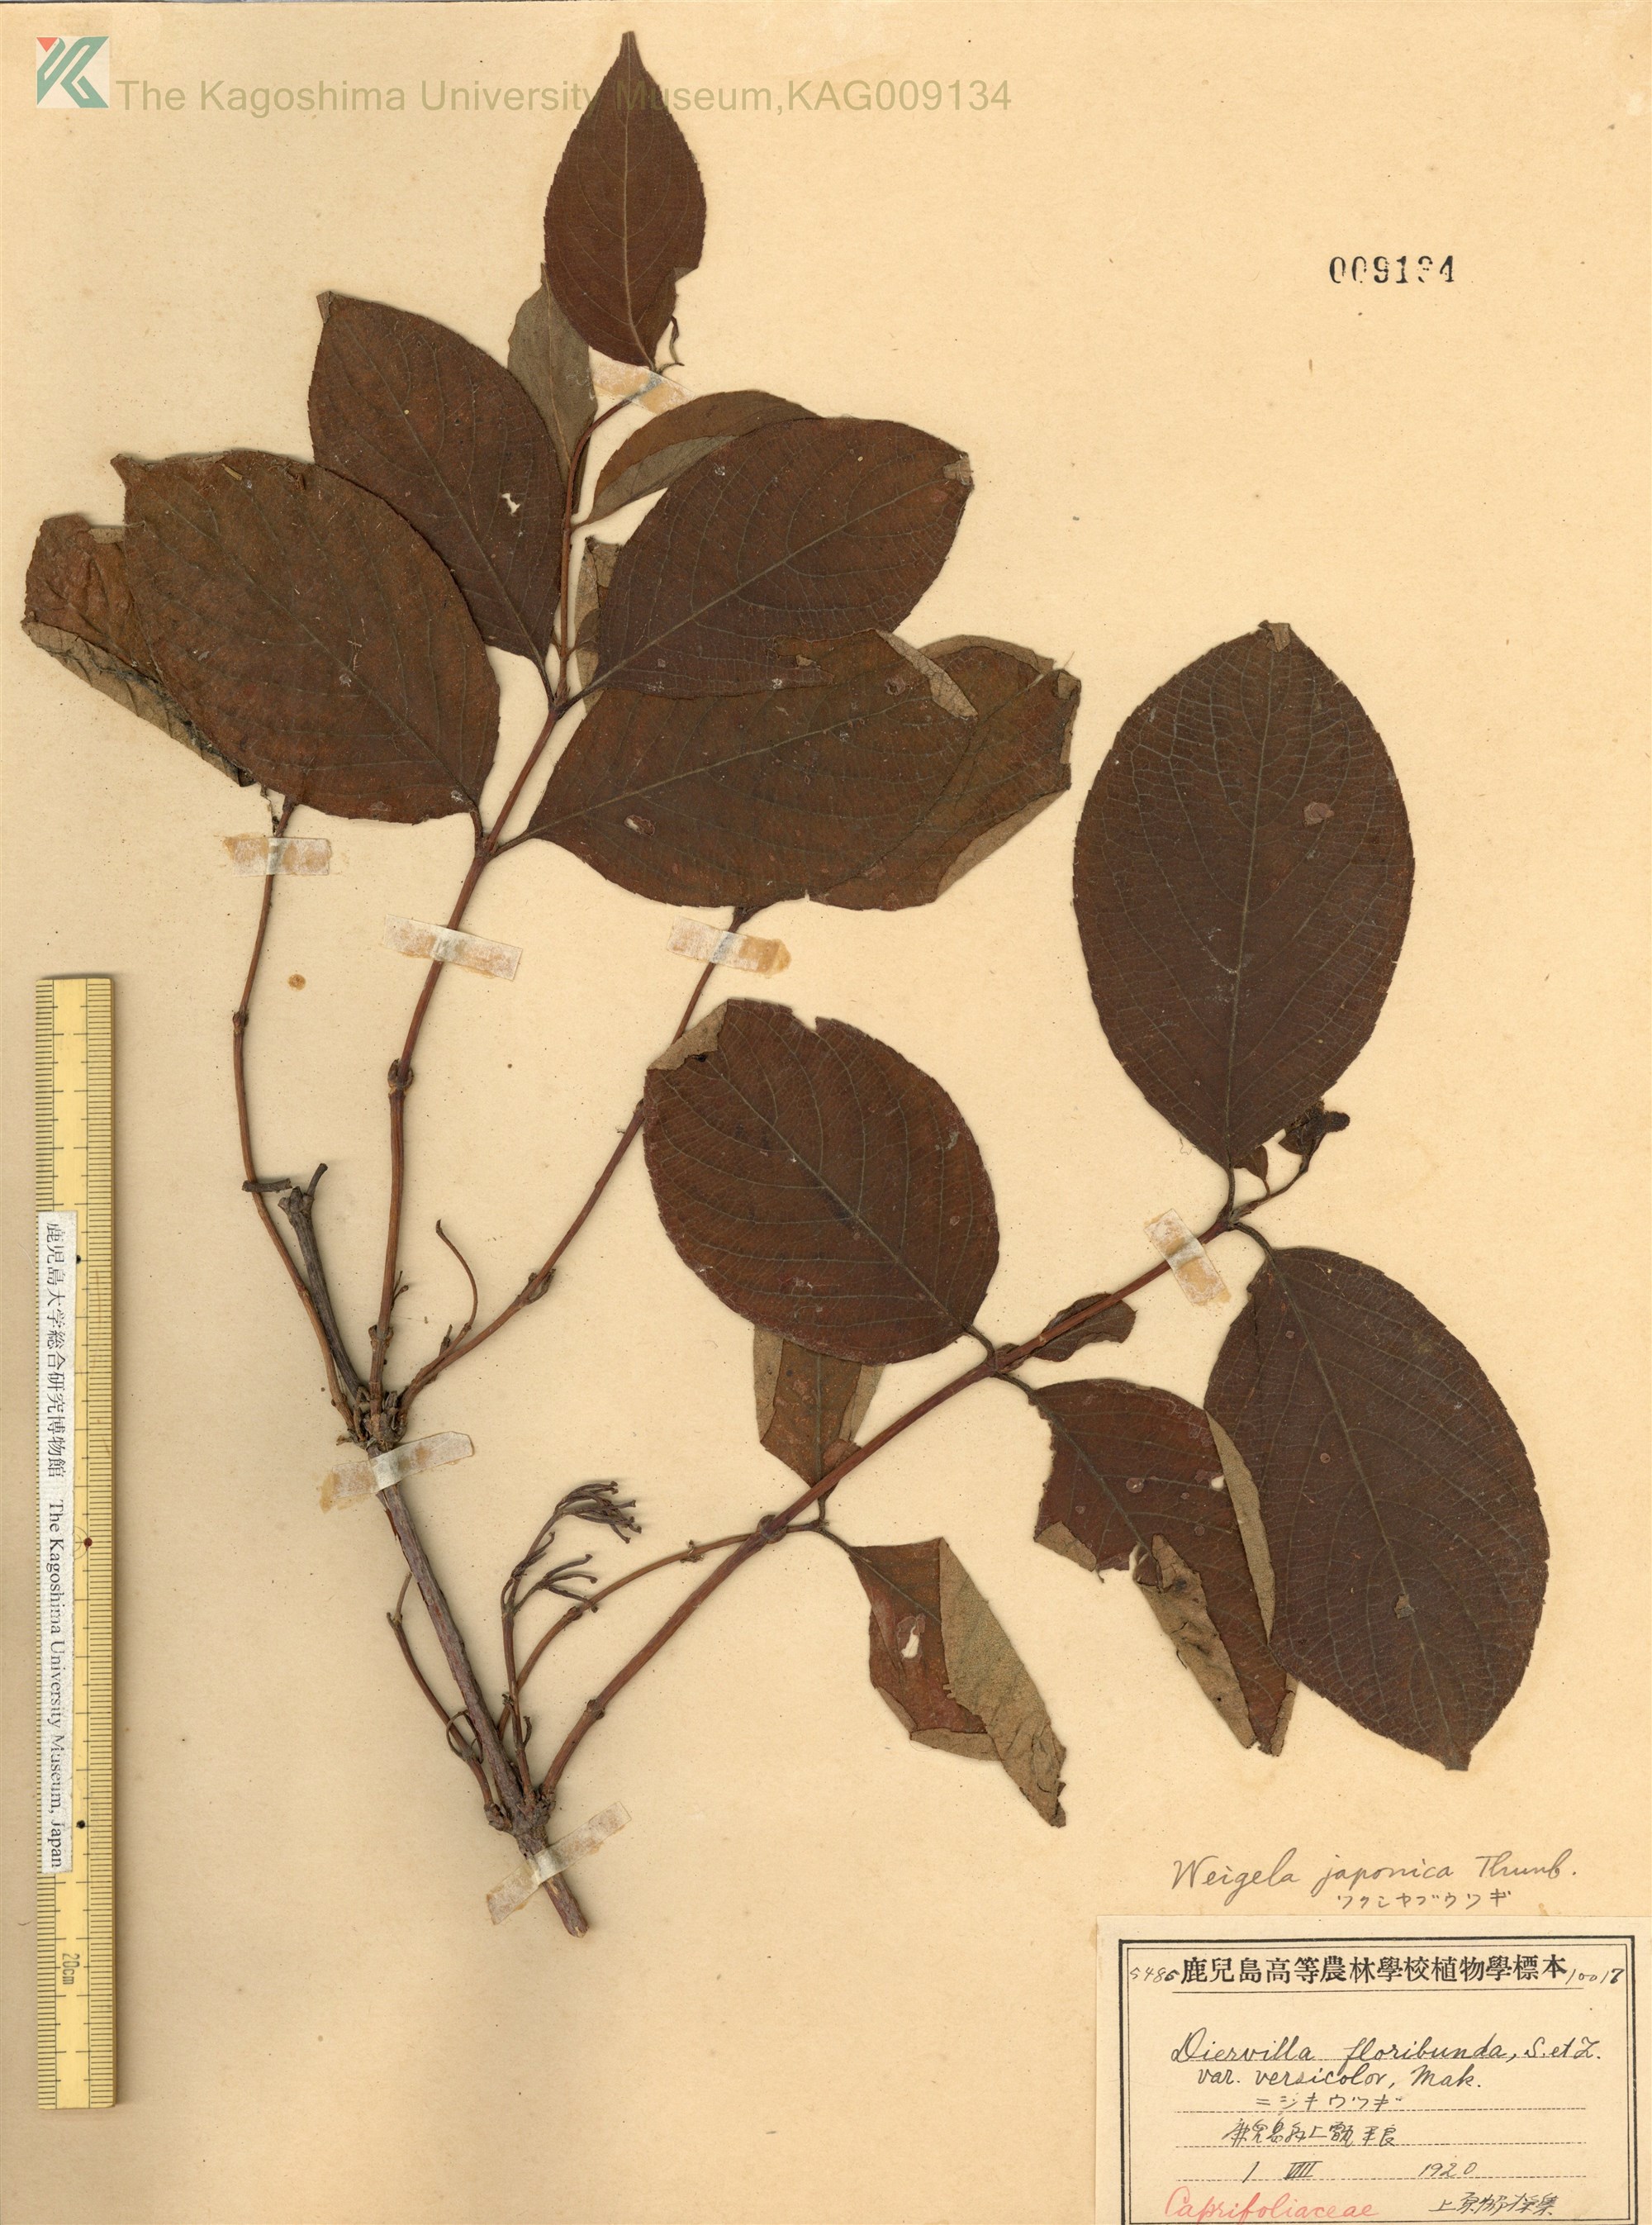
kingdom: Plantae
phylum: Tracheophyta
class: Magnoliopsida
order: Dipsacales
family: Caprifoliaceae
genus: Weigela
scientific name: Weigela japonica
